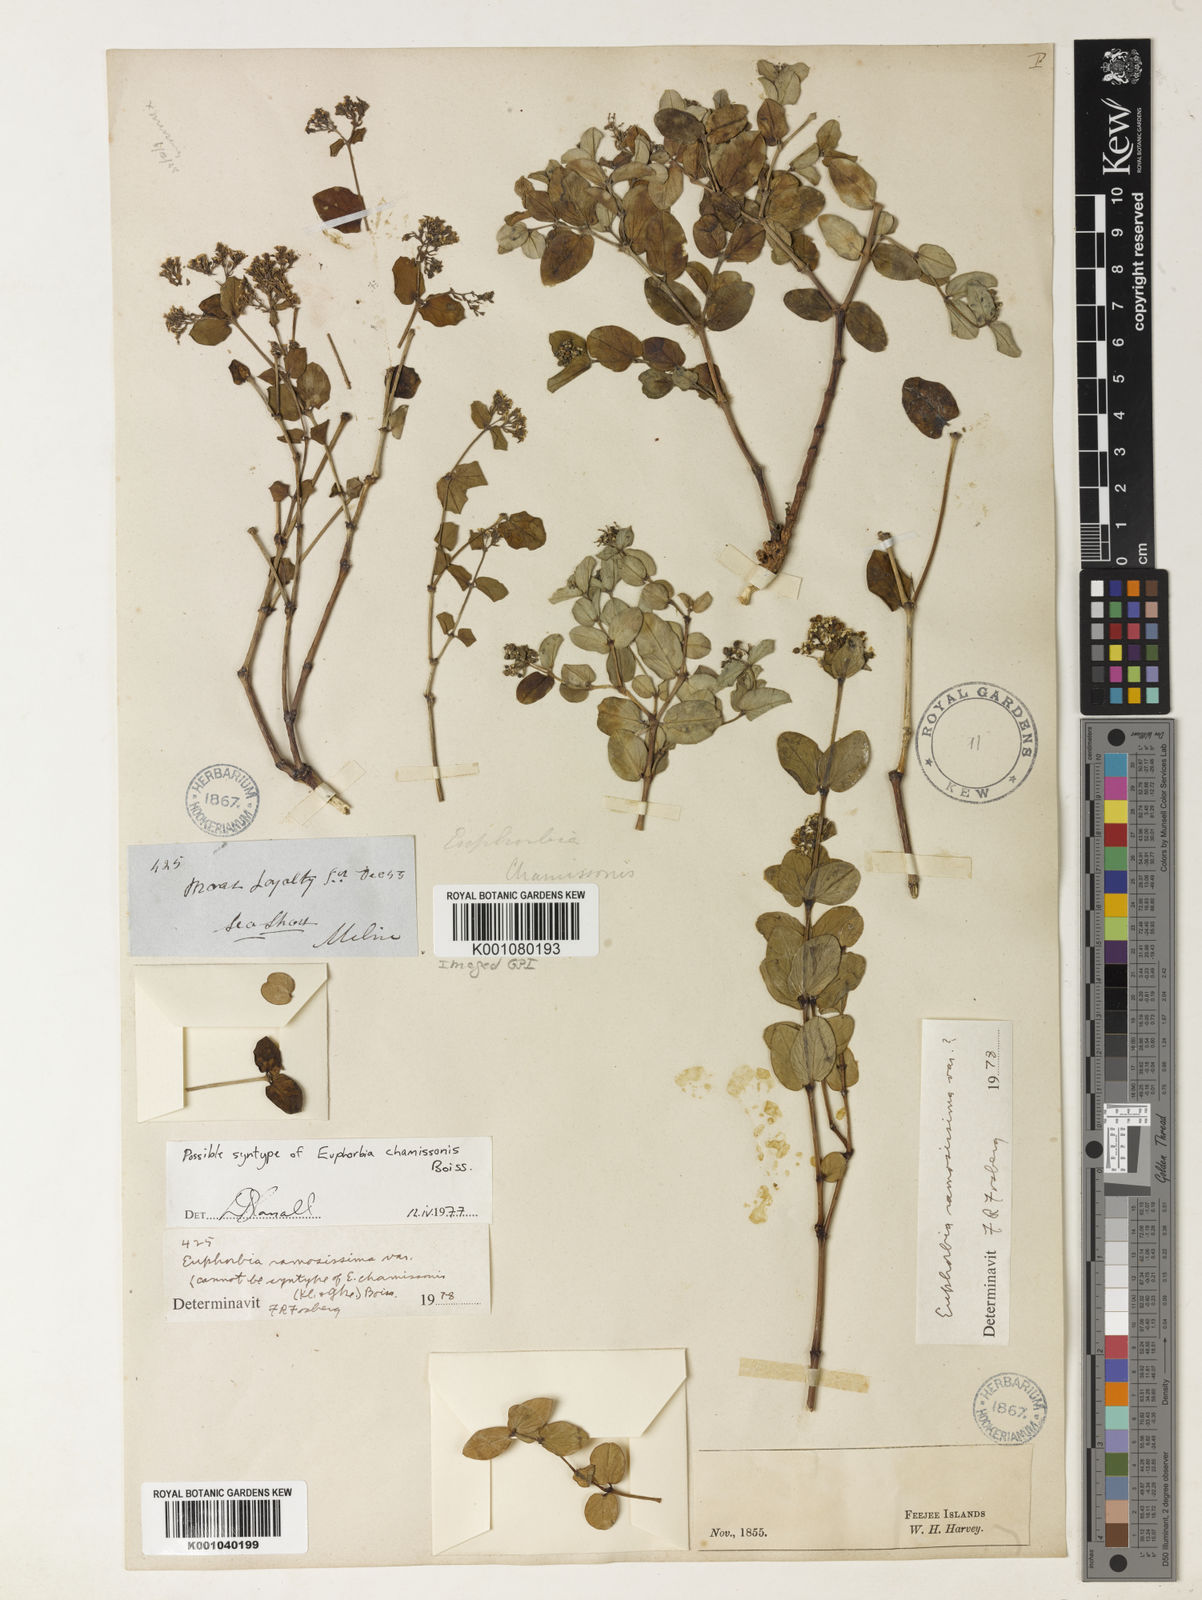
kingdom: Plantae
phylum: Tracheophyta
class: Magnoliopsida
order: Malpighiales
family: Euphorbiaceae
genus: Euphorbia
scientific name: Euphorbia chamissonis
